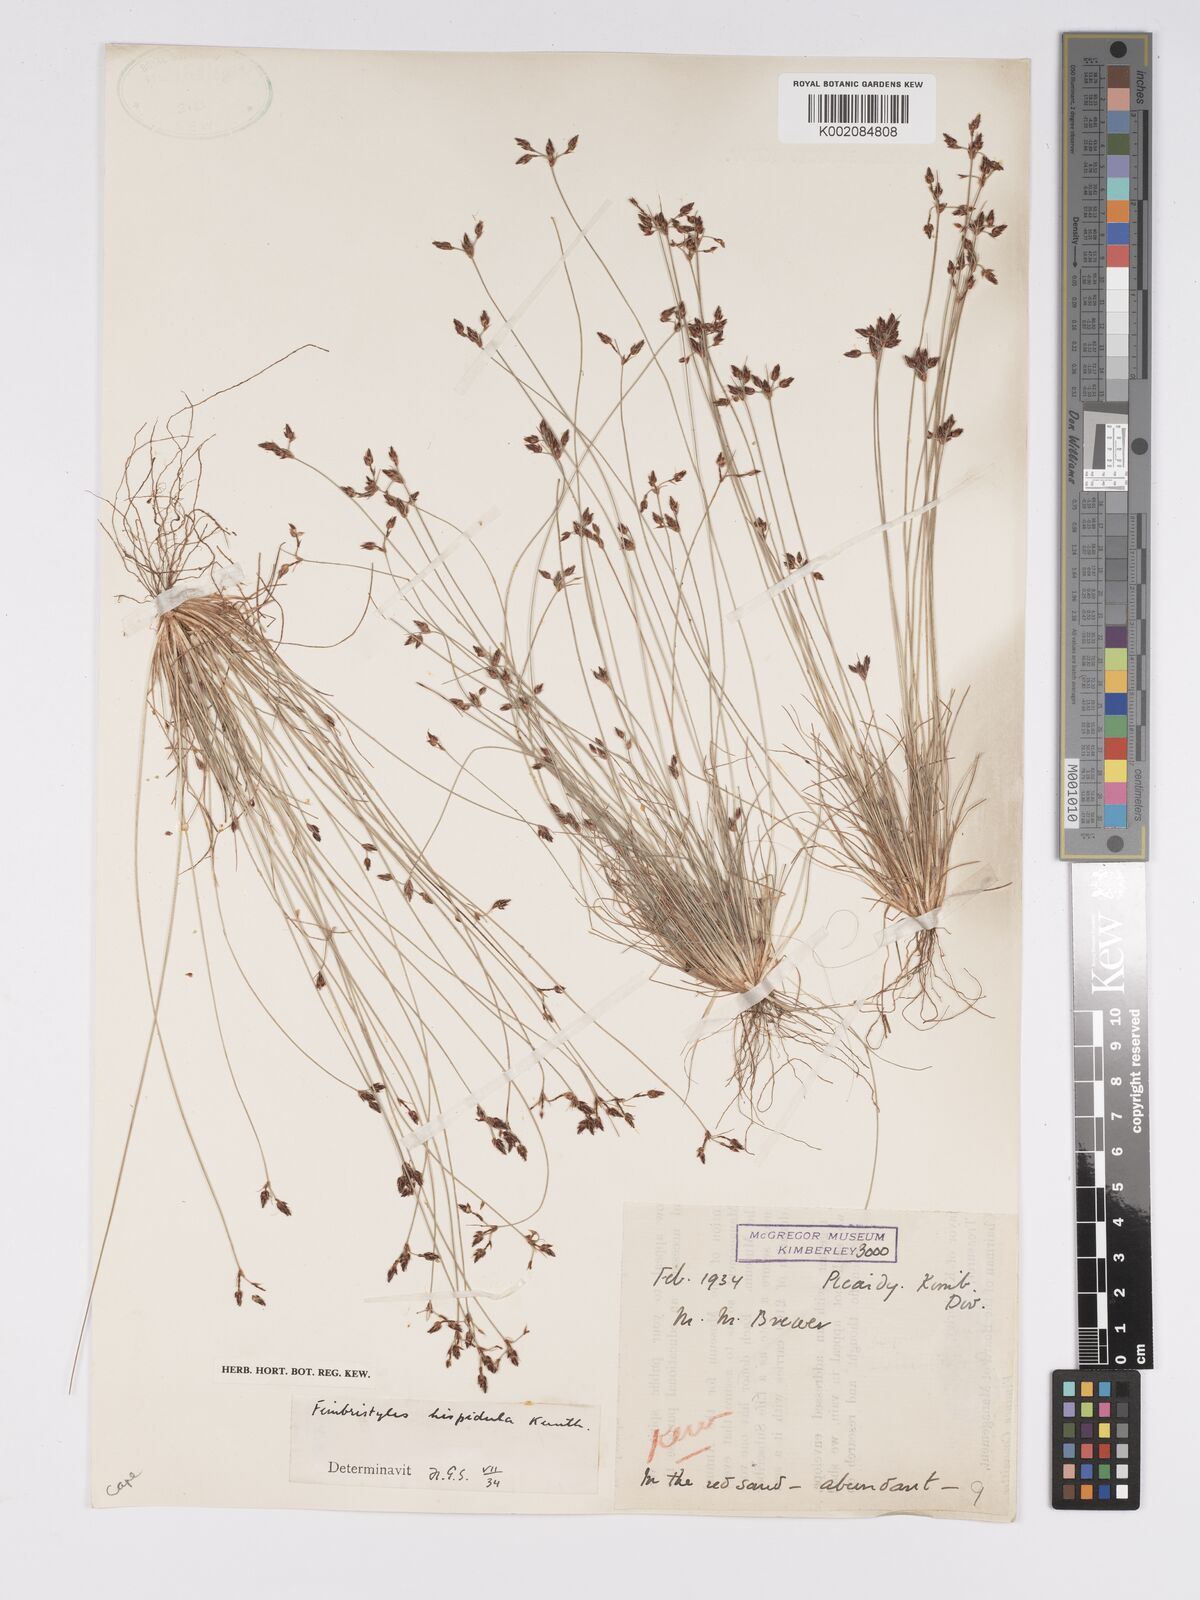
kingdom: Plantae
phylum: Tracheophyta
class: Liliopsida
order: Poales
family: Cyperaceae
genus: Bulbostylis
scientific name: Bulbostylis hispidula
